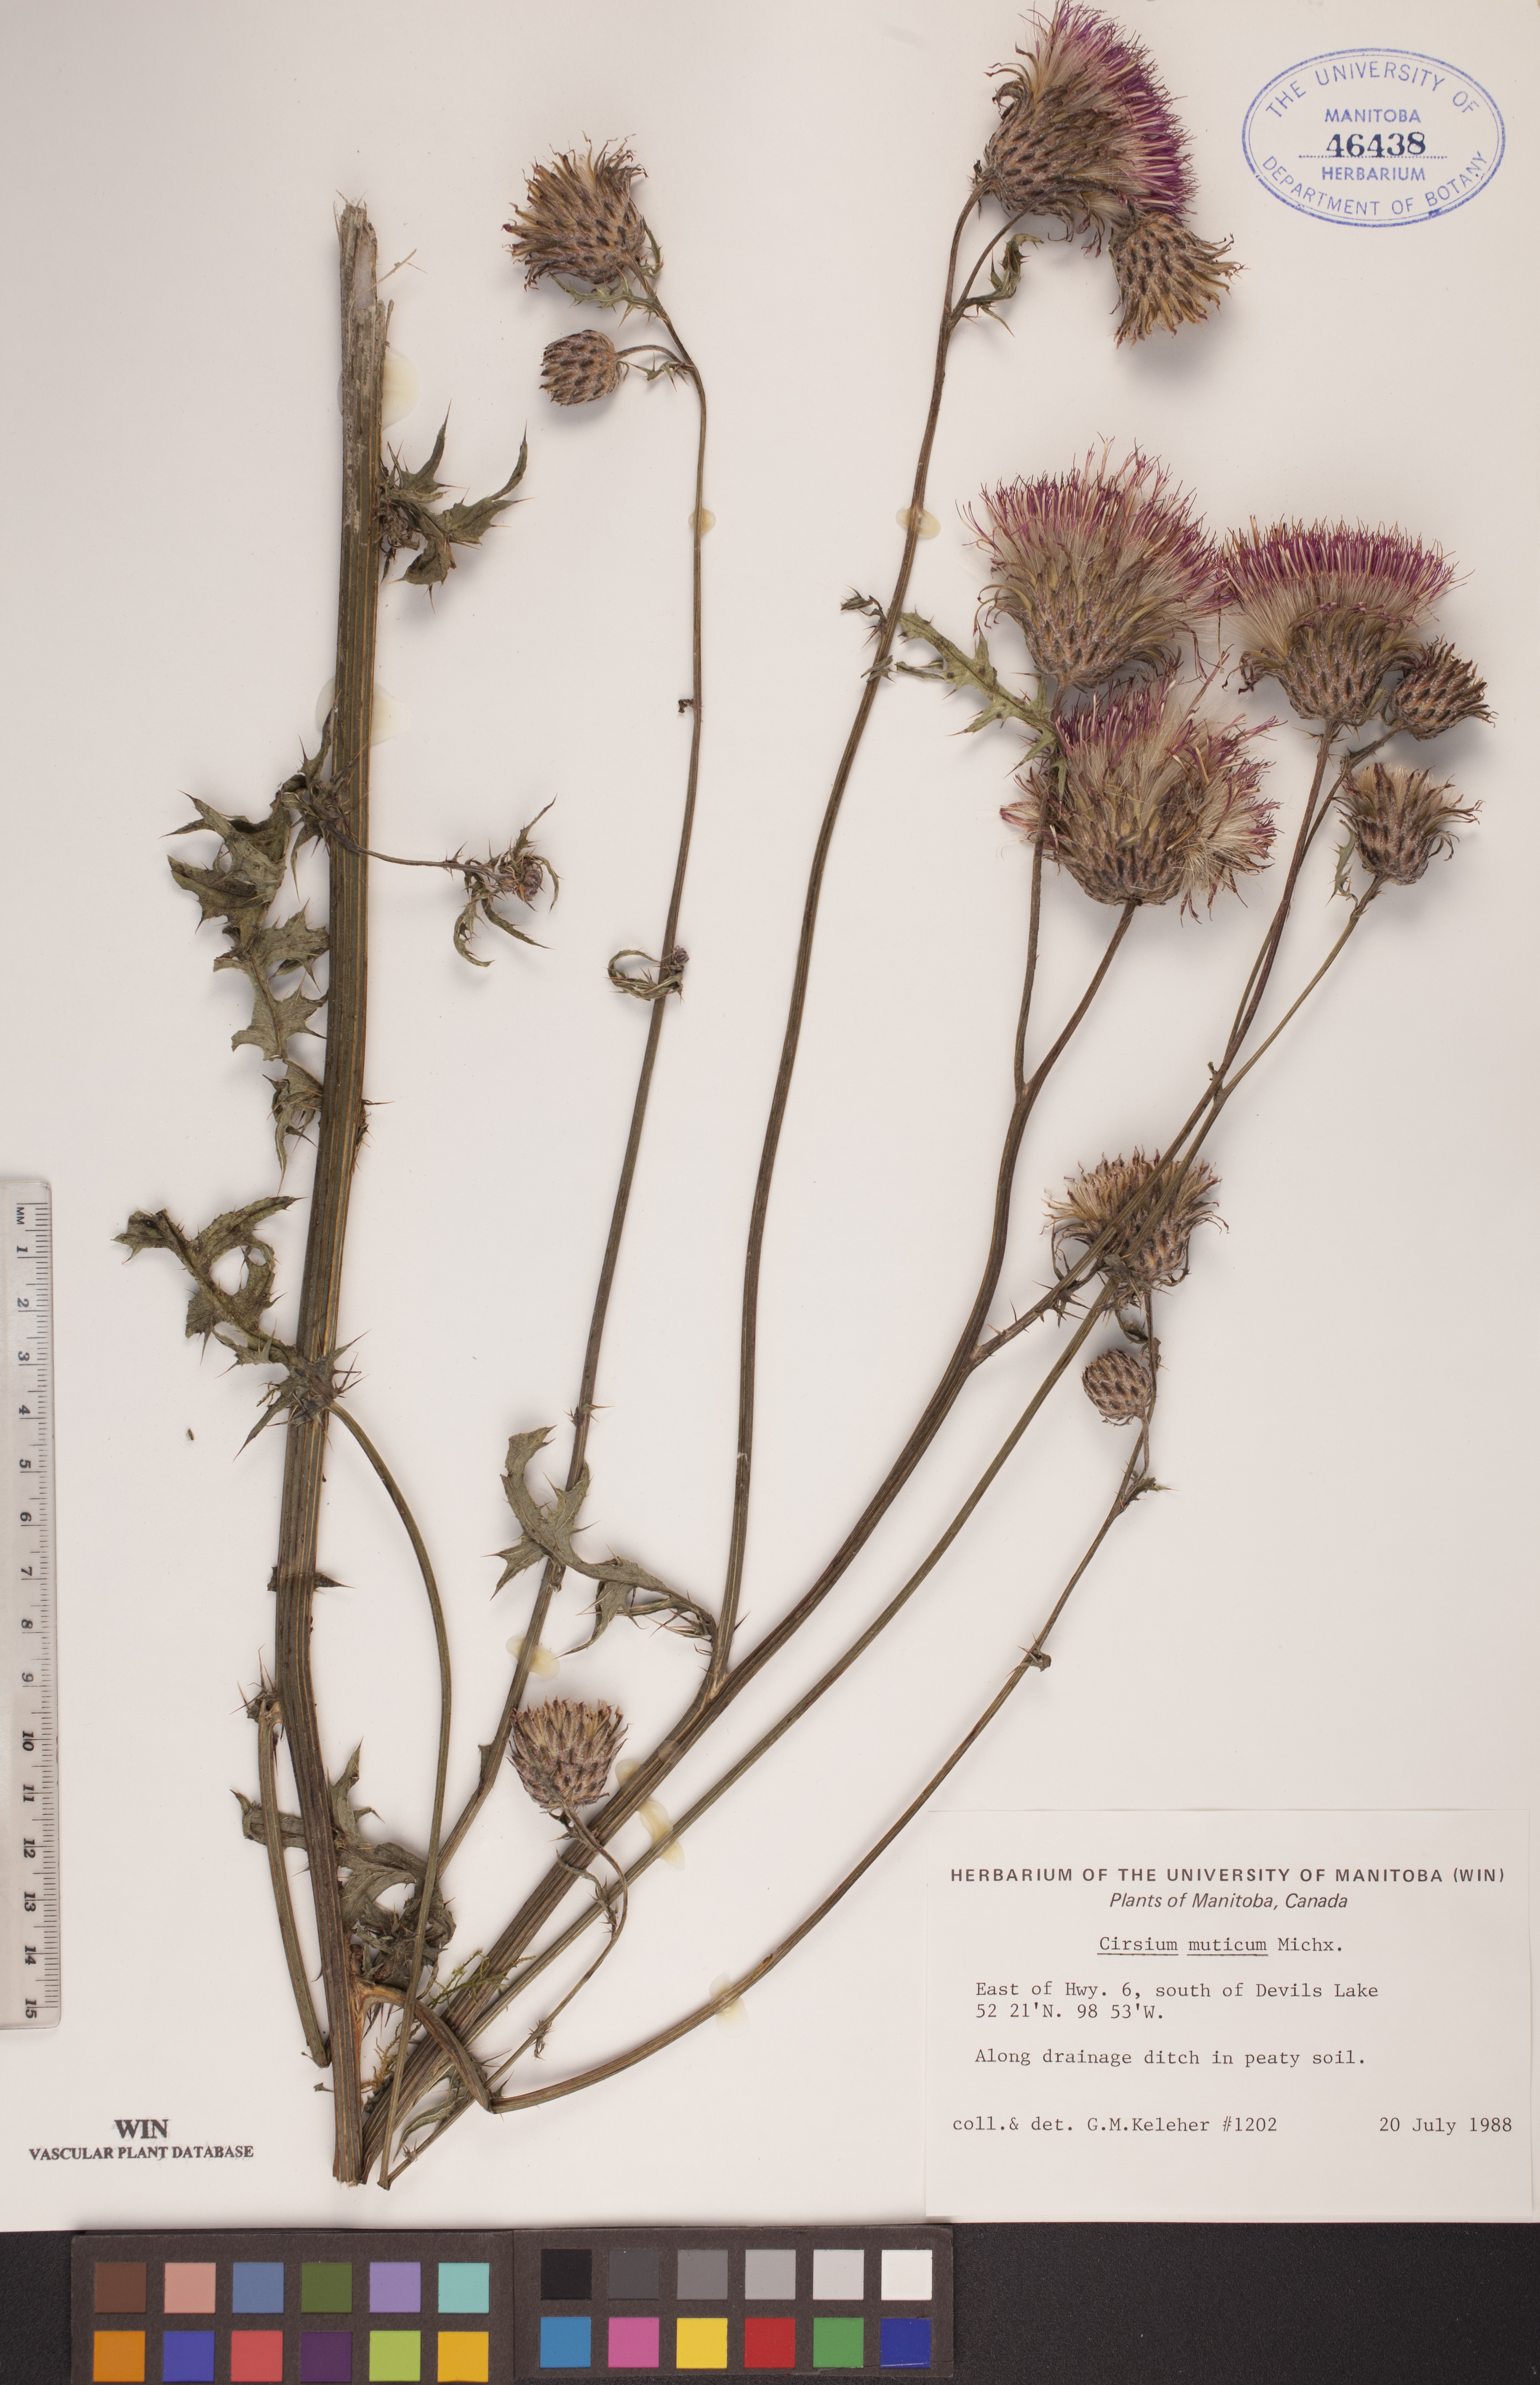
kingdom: Plantae
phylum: Tracheophyta
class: Magnoliopsida
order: Asterales
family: Asteraceae
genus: Cirsium
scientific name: Cirsium muticum
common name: Dunce-nettle
